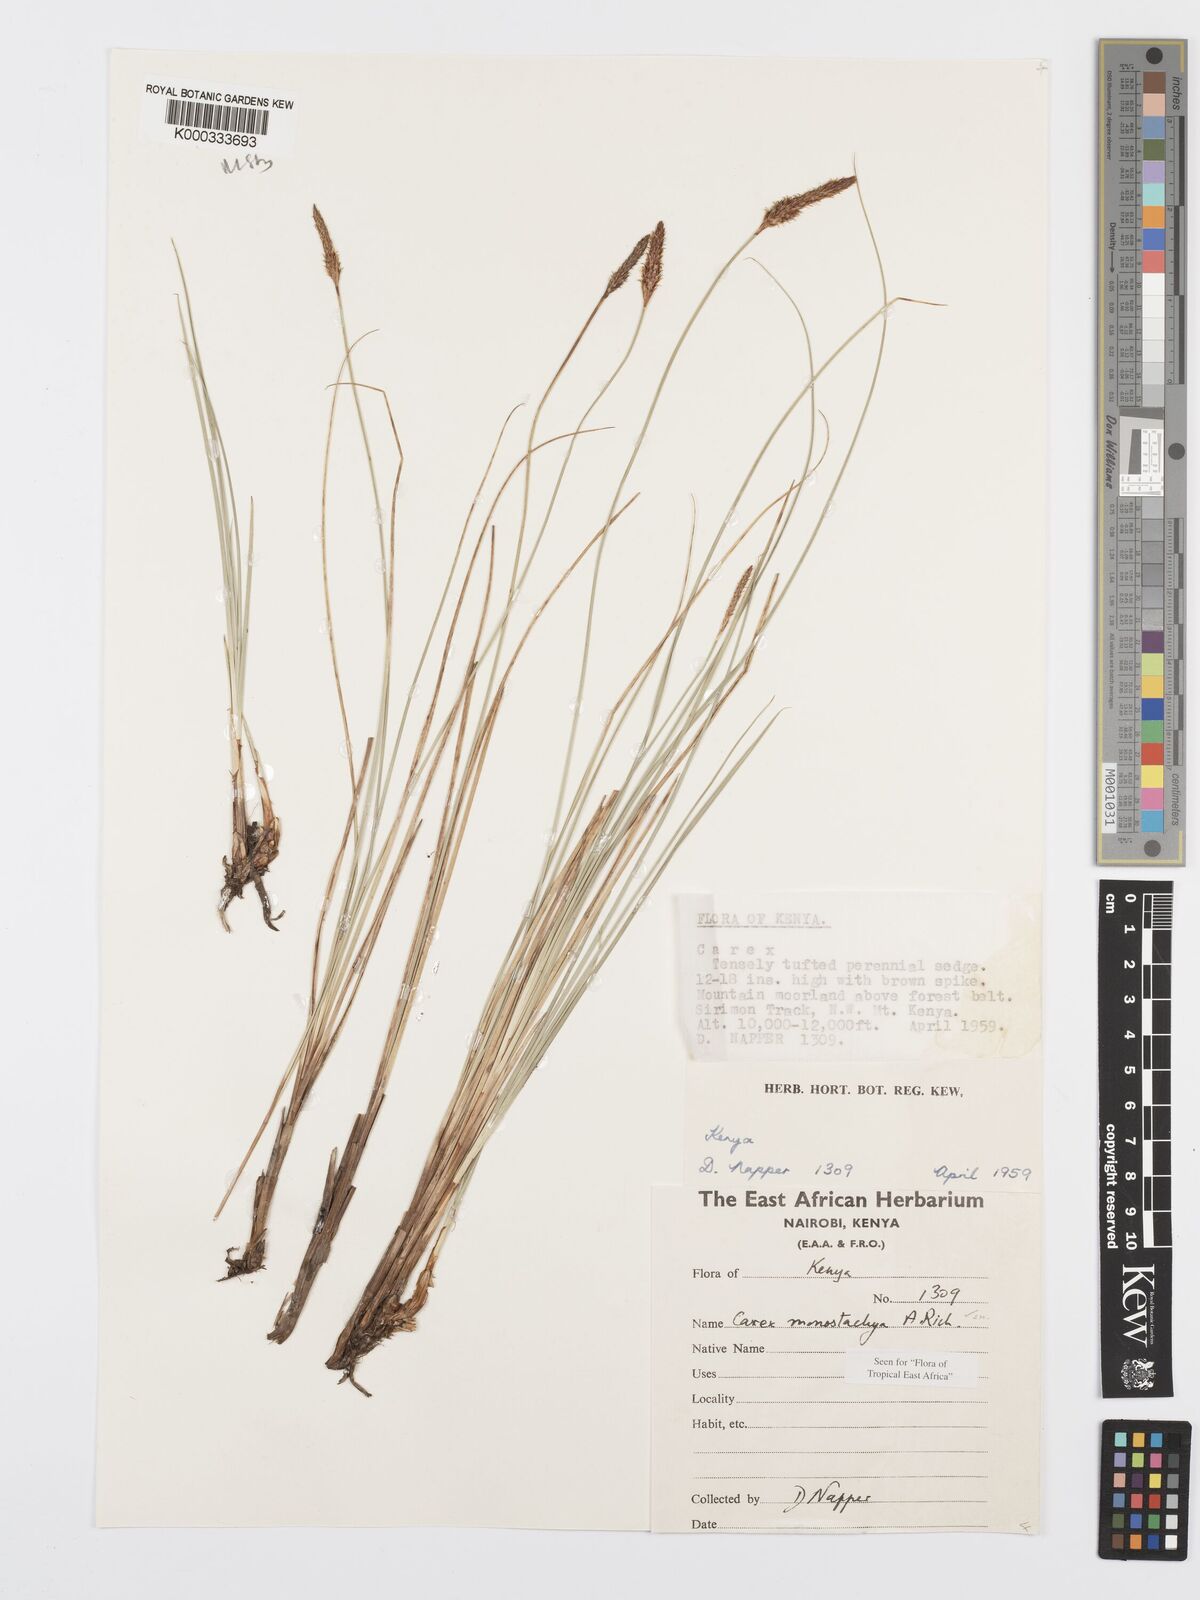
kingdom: Plantae
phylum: Tracheophyta
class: Liliopsida
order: Poales
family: Cyperaceae
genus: Carex
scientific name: Carex monostachya
